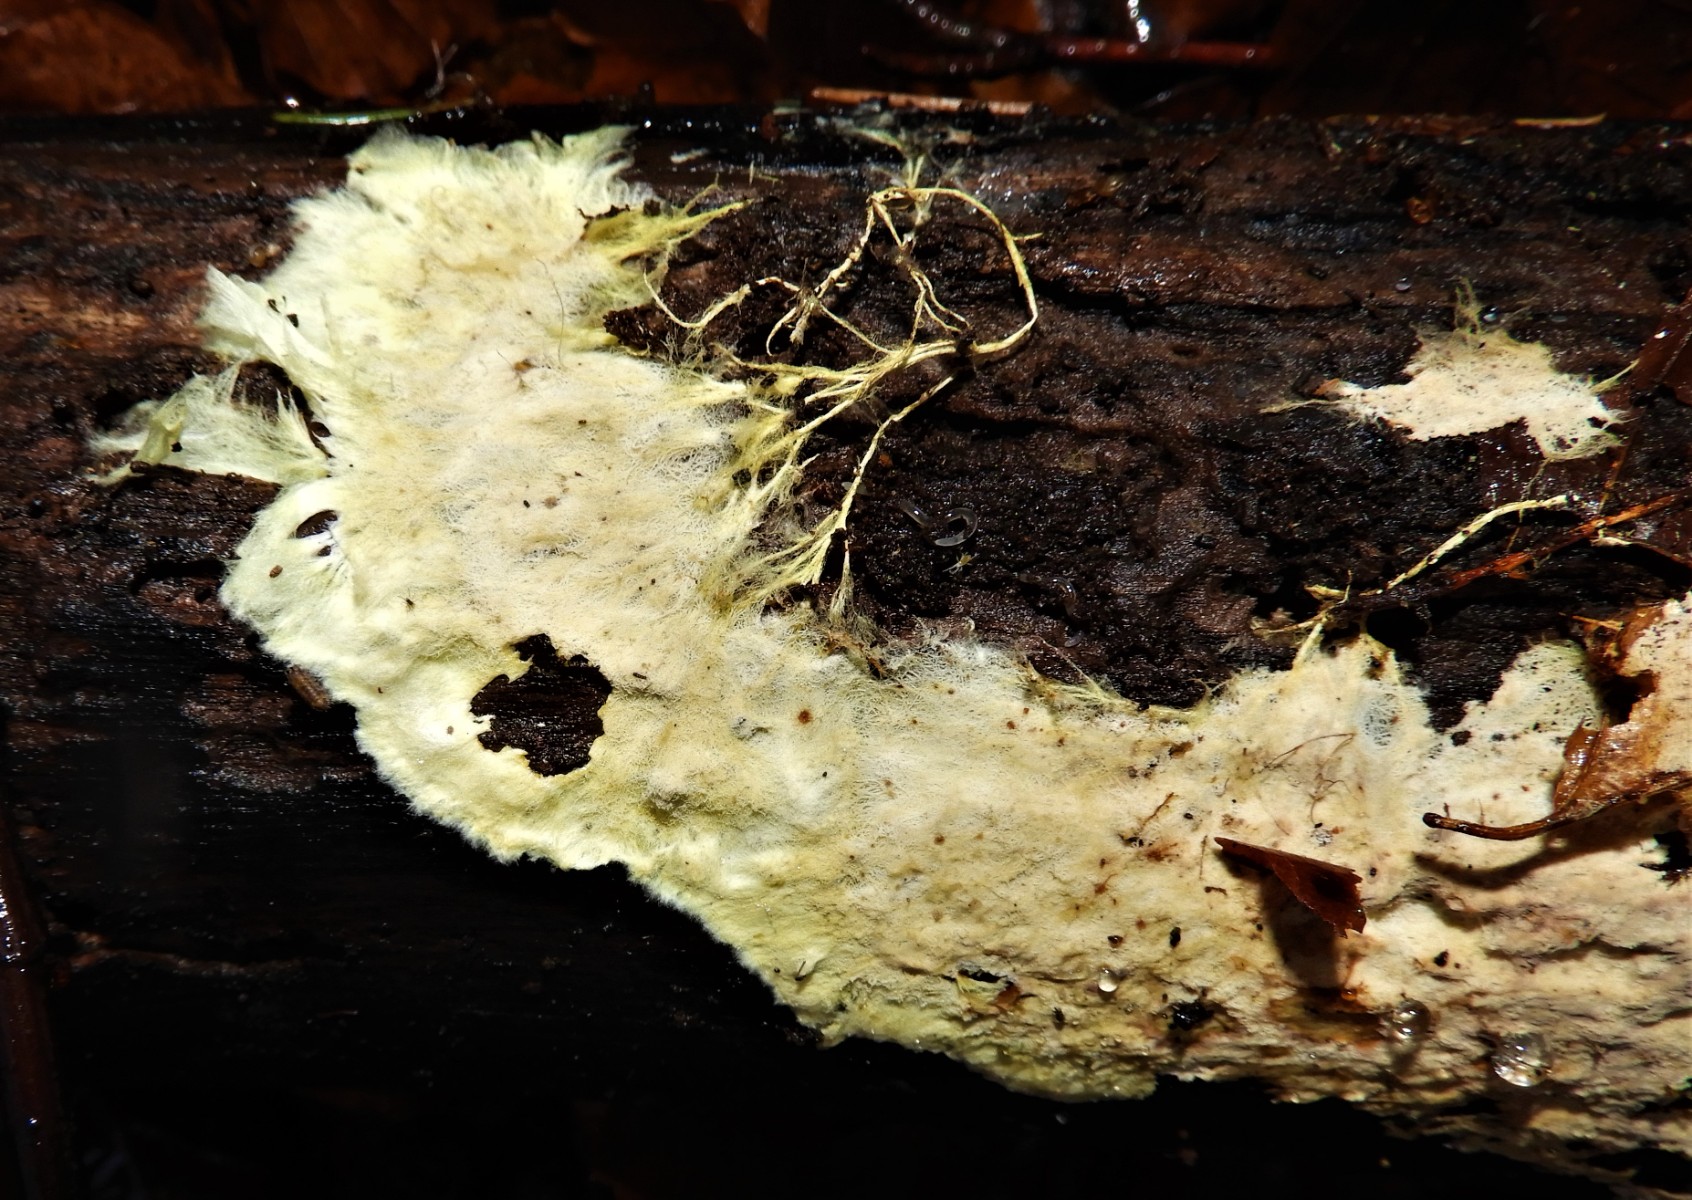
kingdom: Fungi
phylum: Basidiomycota
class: Agaricomycetes
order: Russulales
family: Xenasmataceae
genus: Xenasmatella
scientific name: Xenasmatella vaga
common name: svovl-strenghinde
